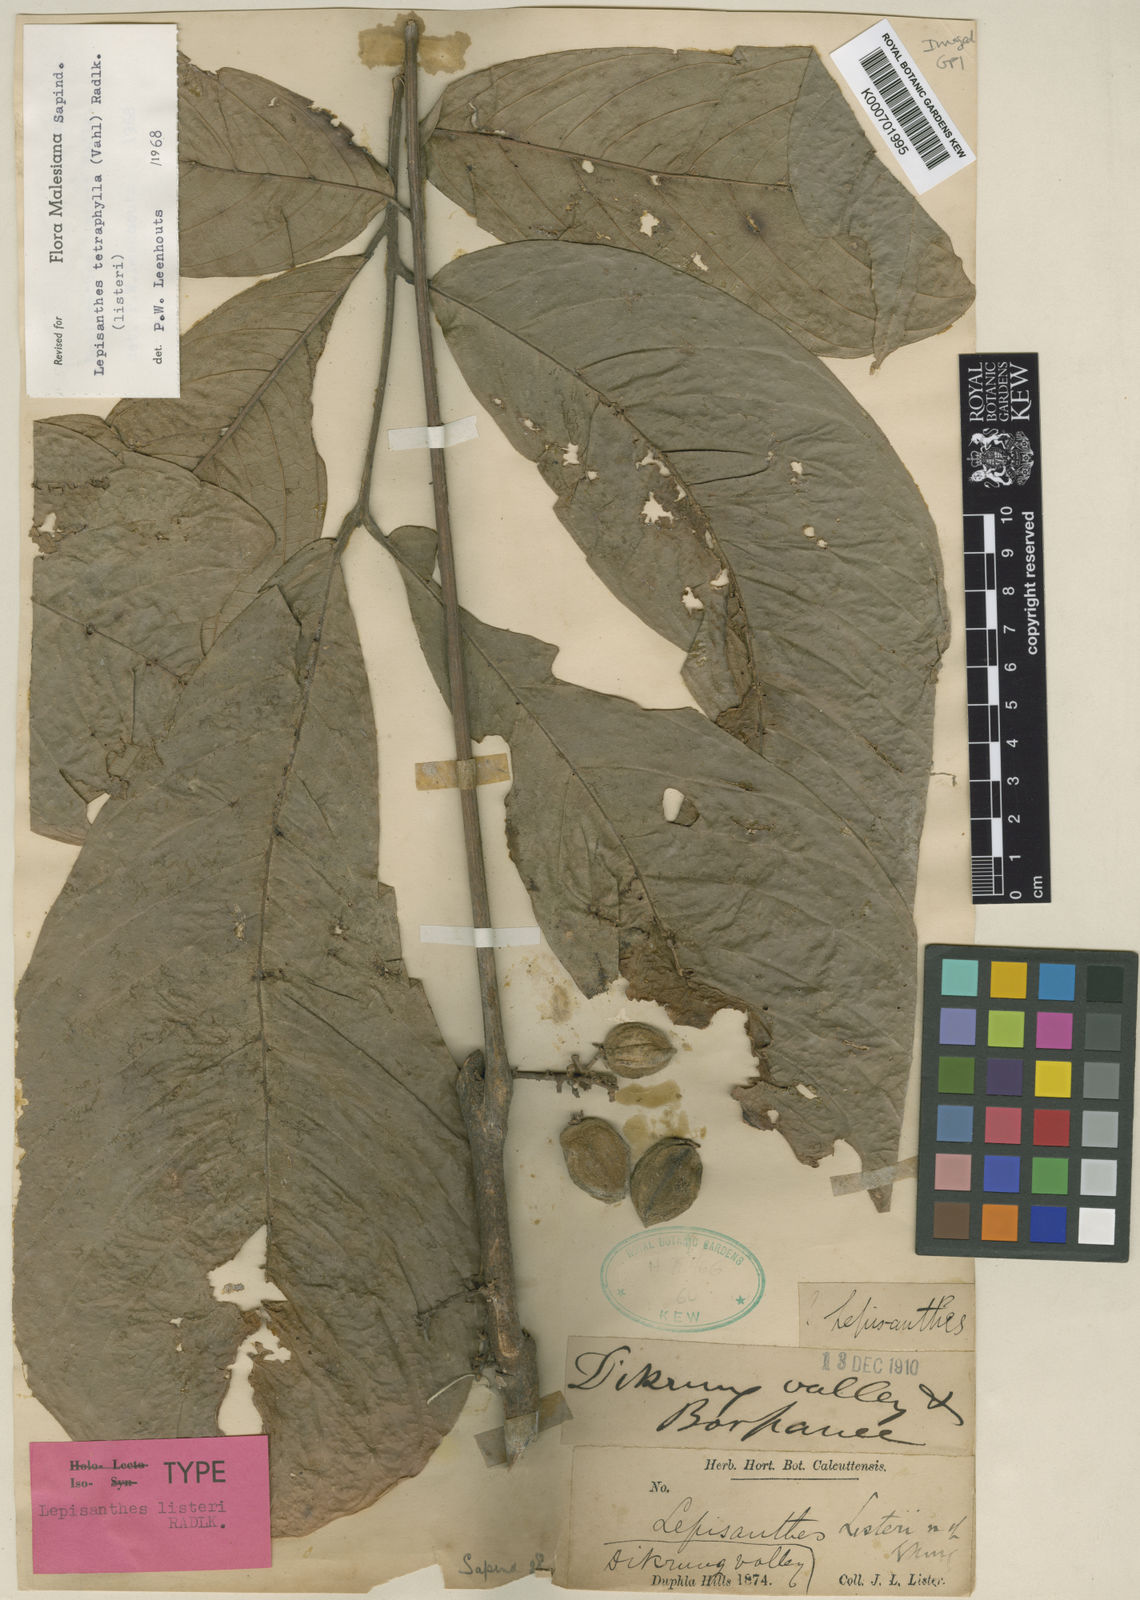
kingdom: Plantae
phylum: Tracheophyta
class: Magnoliopsida
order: Sapindales
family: Sapindaceae
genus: Lepisanthes
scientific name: Lepisanthes tetraphylla
